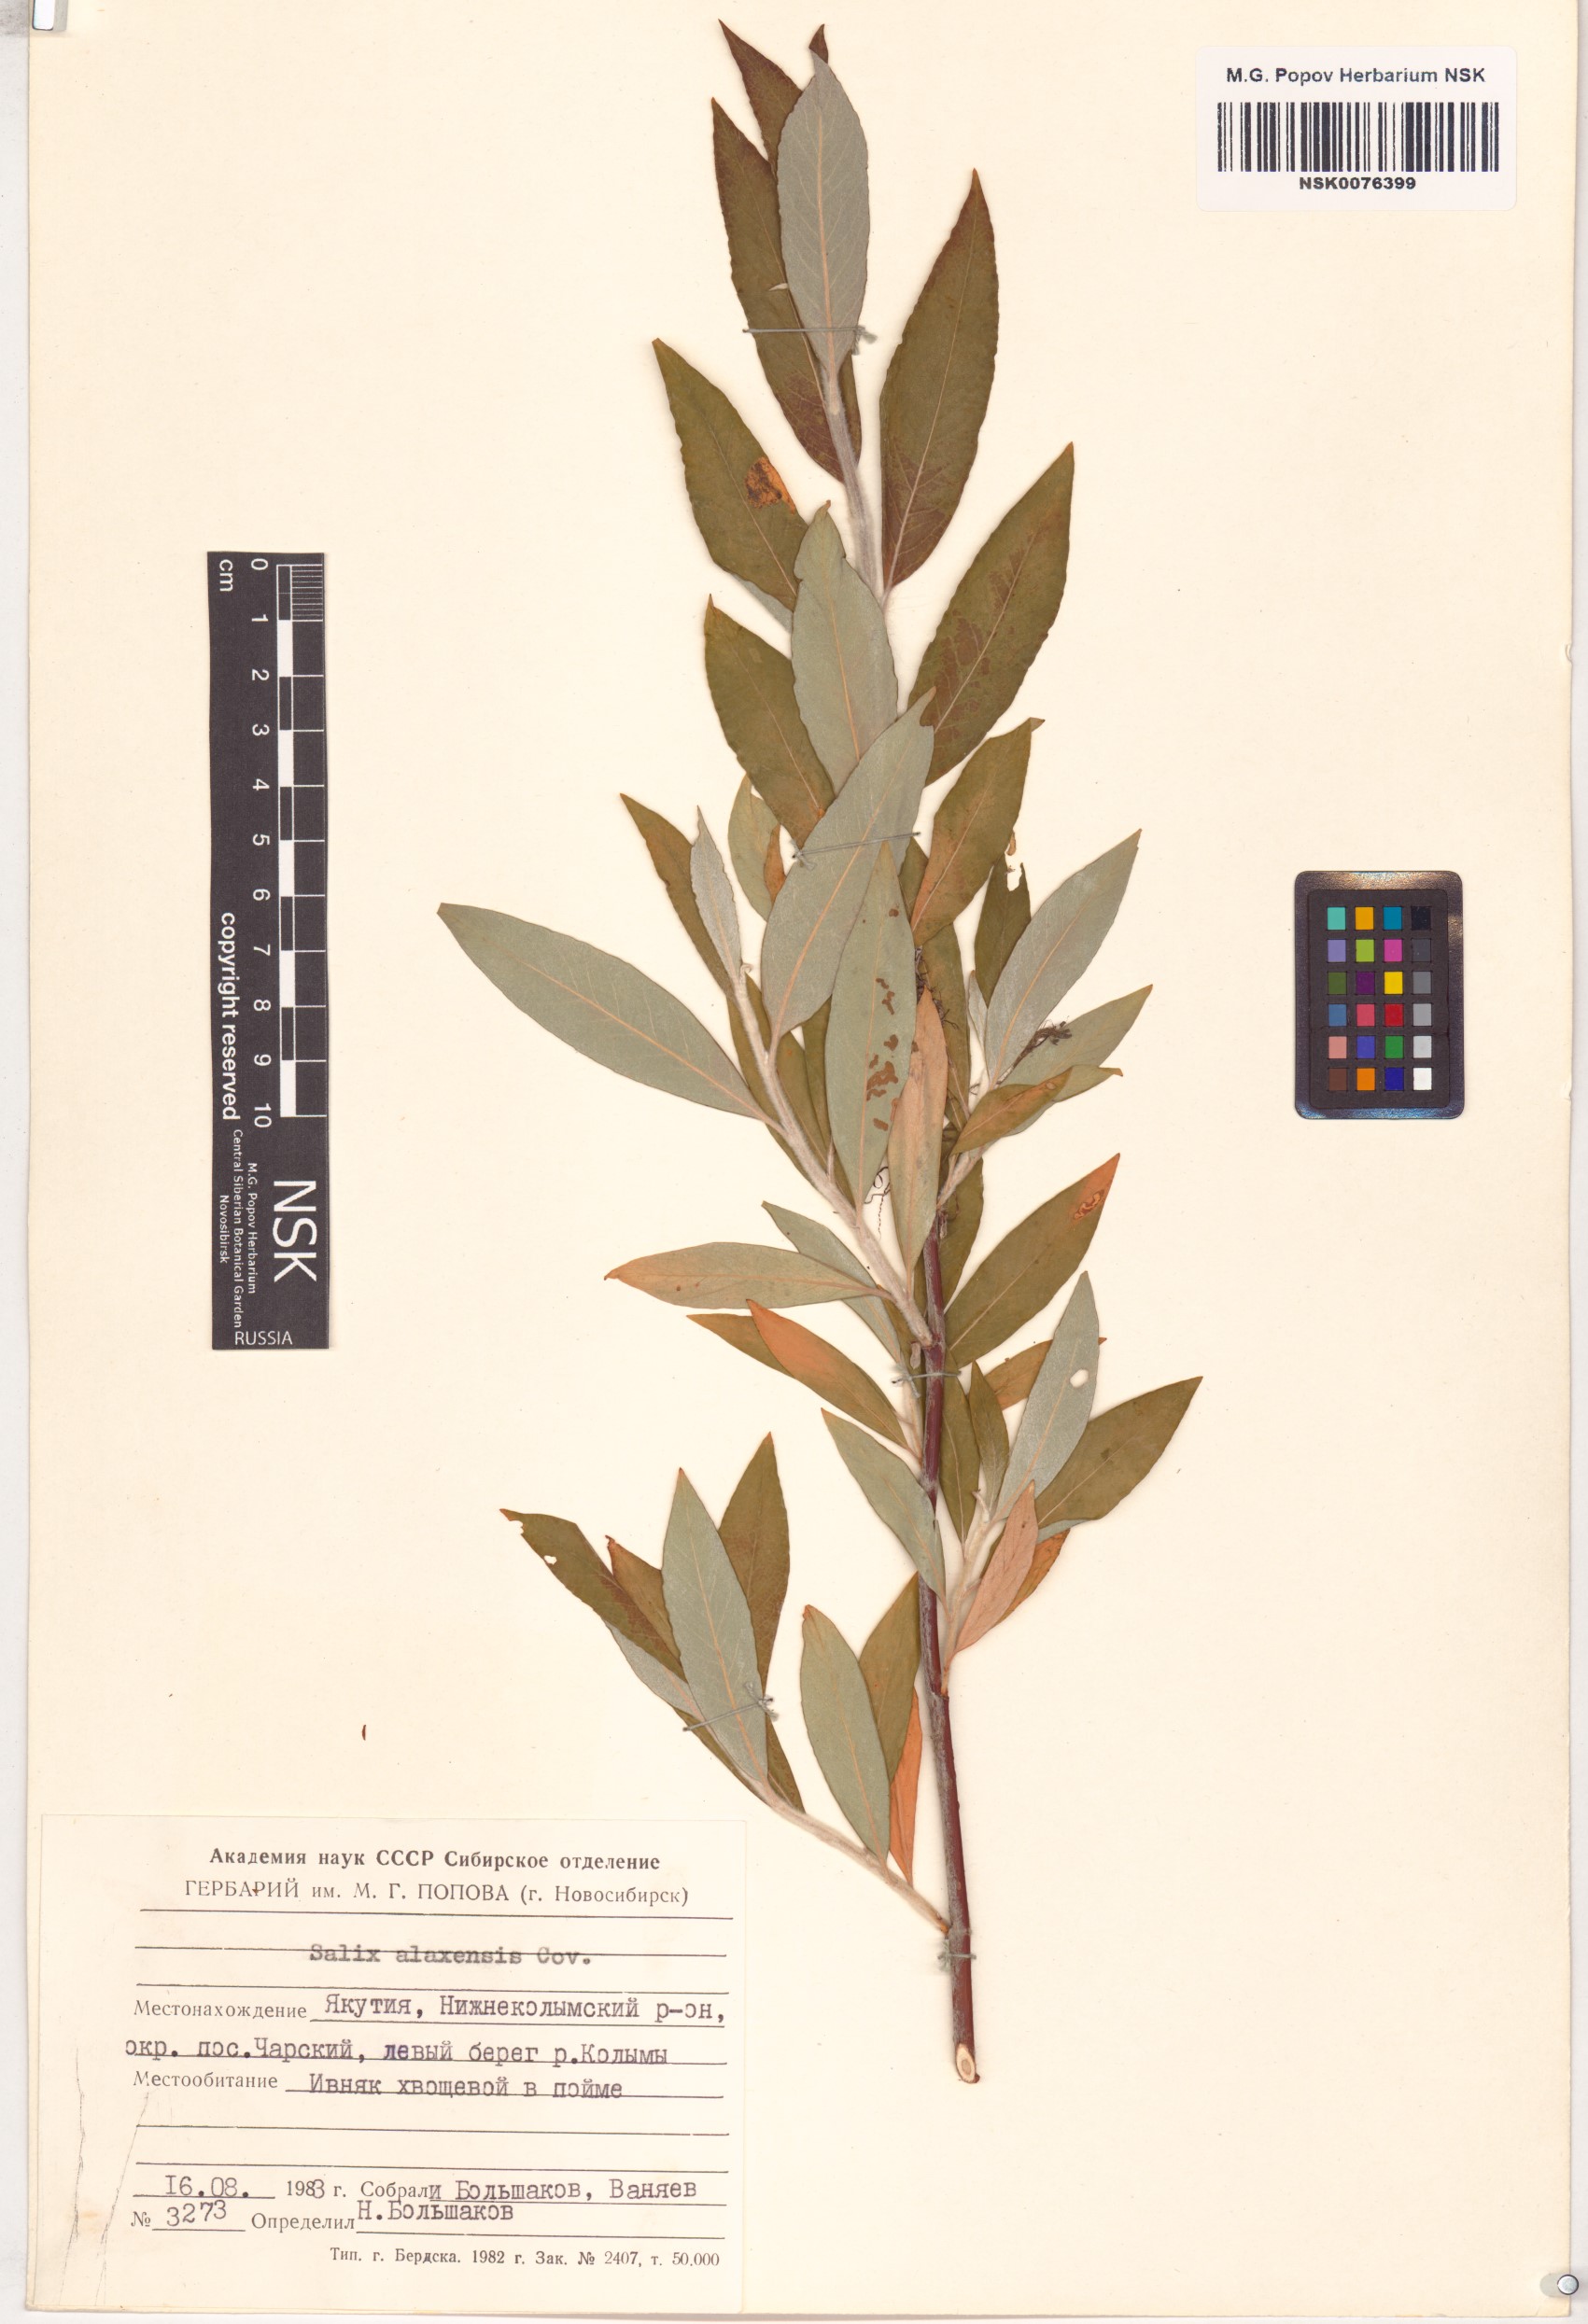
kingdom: Plantae
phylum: Tracheophyta
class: Magnoliopsida
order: Malpighiales
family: Salicaceae
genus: Salix
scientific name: Salix alaxensis
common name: Feltleaf willow
